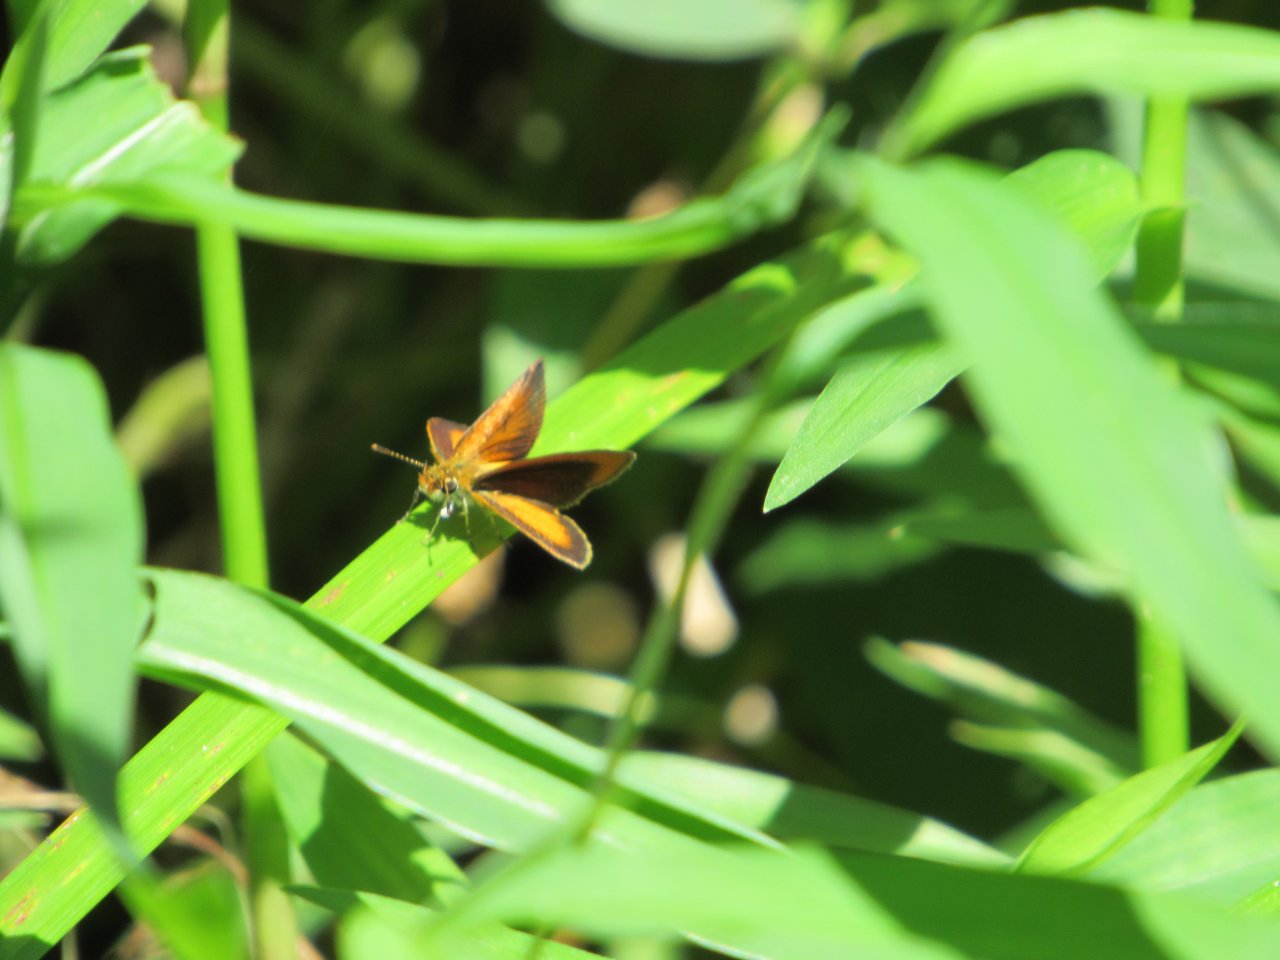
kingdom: Animalia
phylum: Arthropoda
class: Insecta
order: Lepidoptera
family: Hesperiidae
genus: Ancyloxypha
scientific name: Ancyloxypha numitor
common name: Least Skipper
